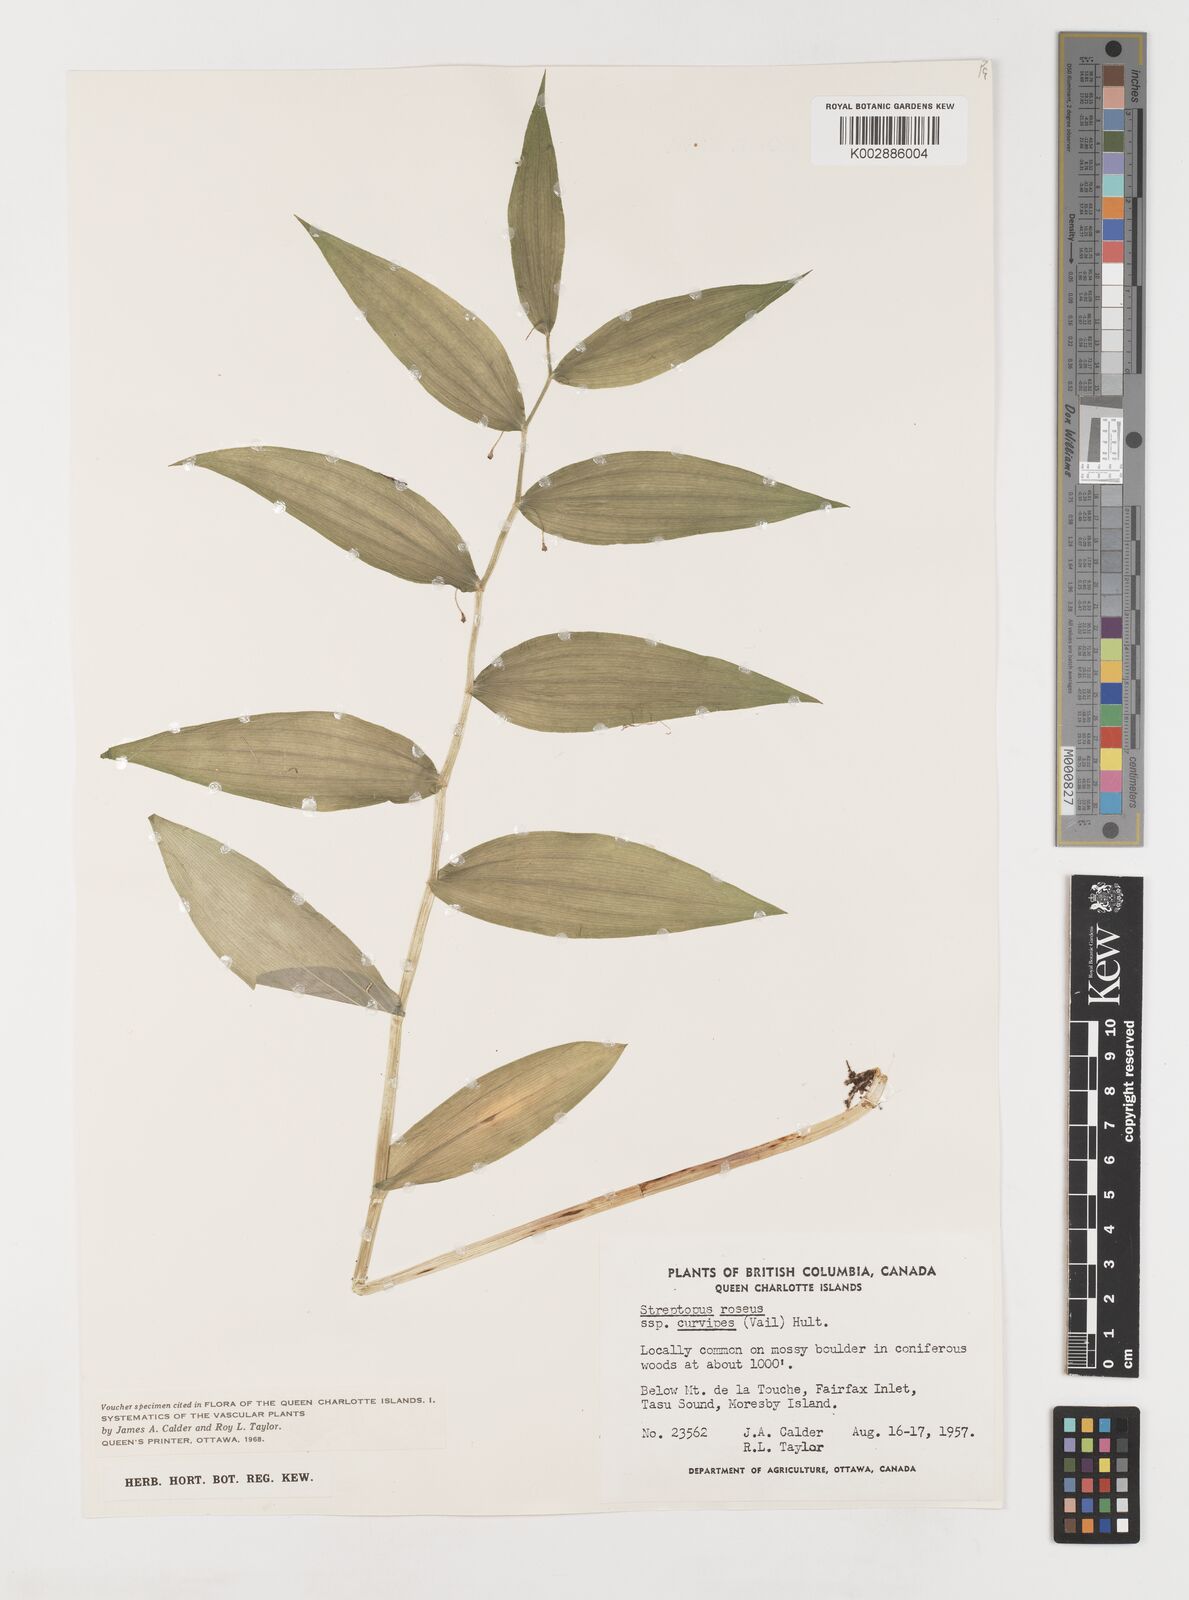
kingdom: Plantae
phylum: Tracheophyta
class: Liliopsida
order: Liliales
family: Liliaceae
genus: Streptopus
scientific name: Streptopus lanceolatus
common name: Rose mandarin
